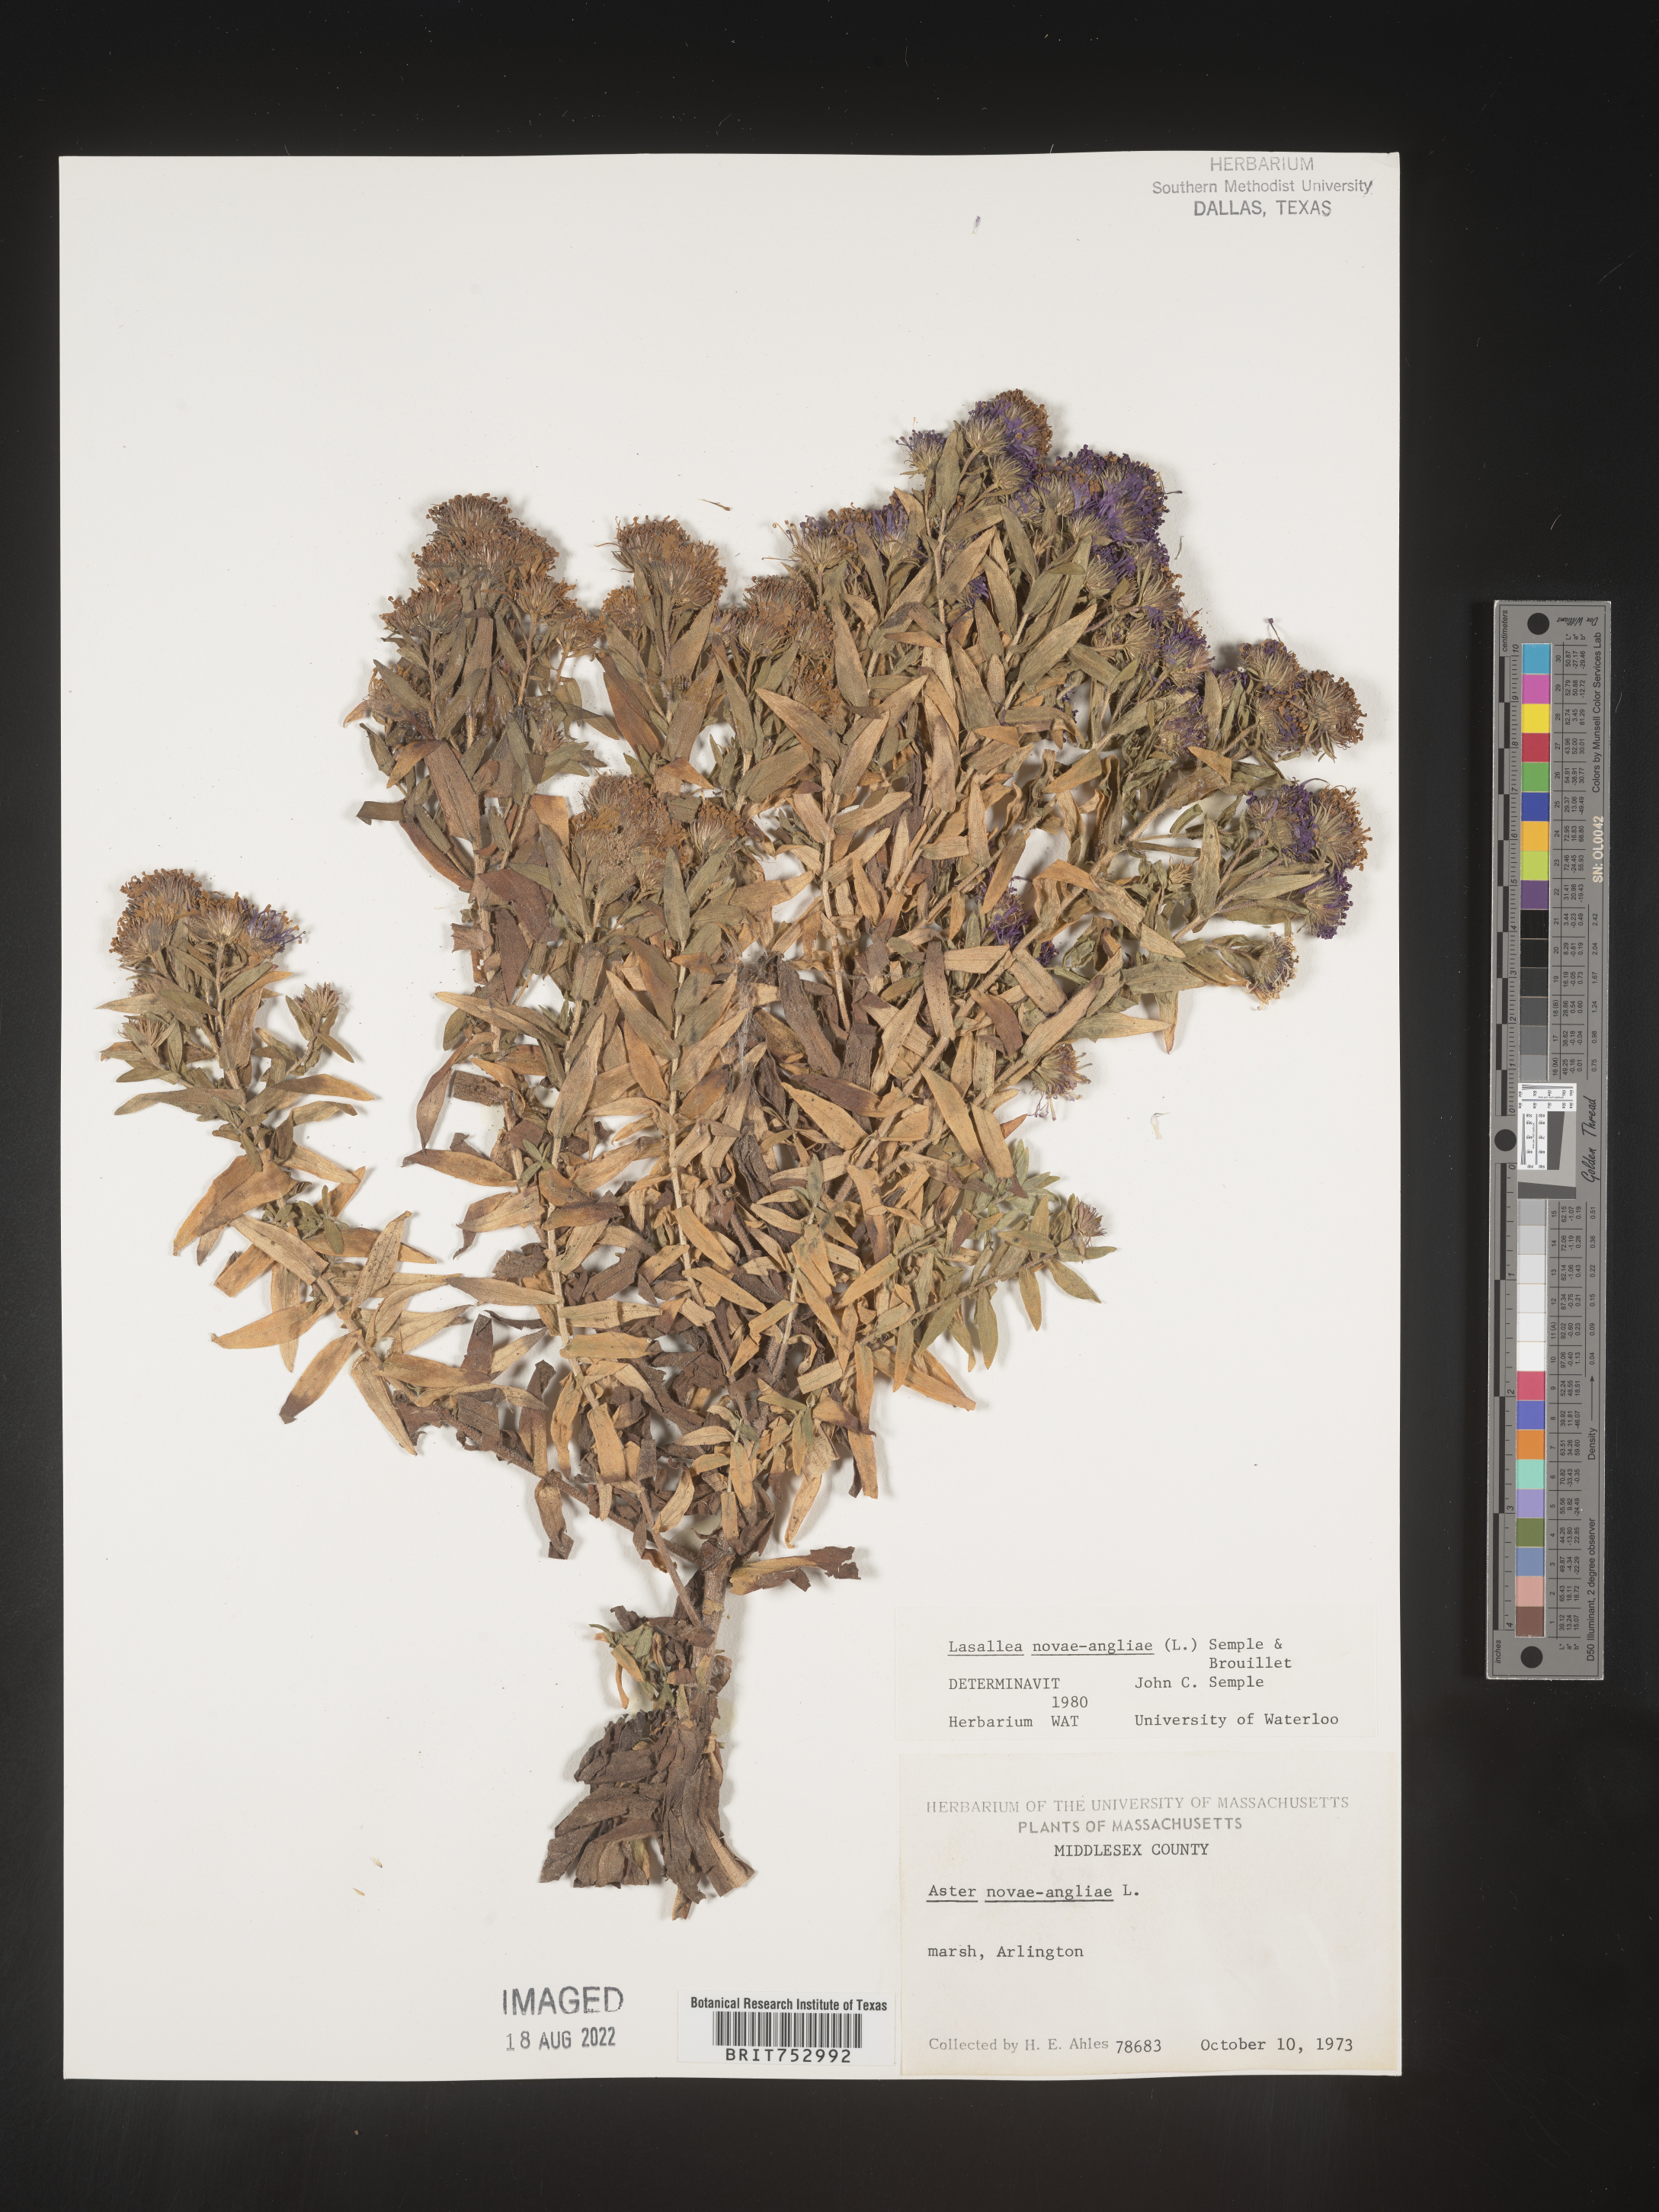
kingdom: Plantae
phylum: Tracheophyta
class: Magnoliopsida
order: Asterales
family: Asteraceae
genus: Symphyotrichum
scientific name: Symphyotrichum novae-angliae
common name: Michaelmas daisy
